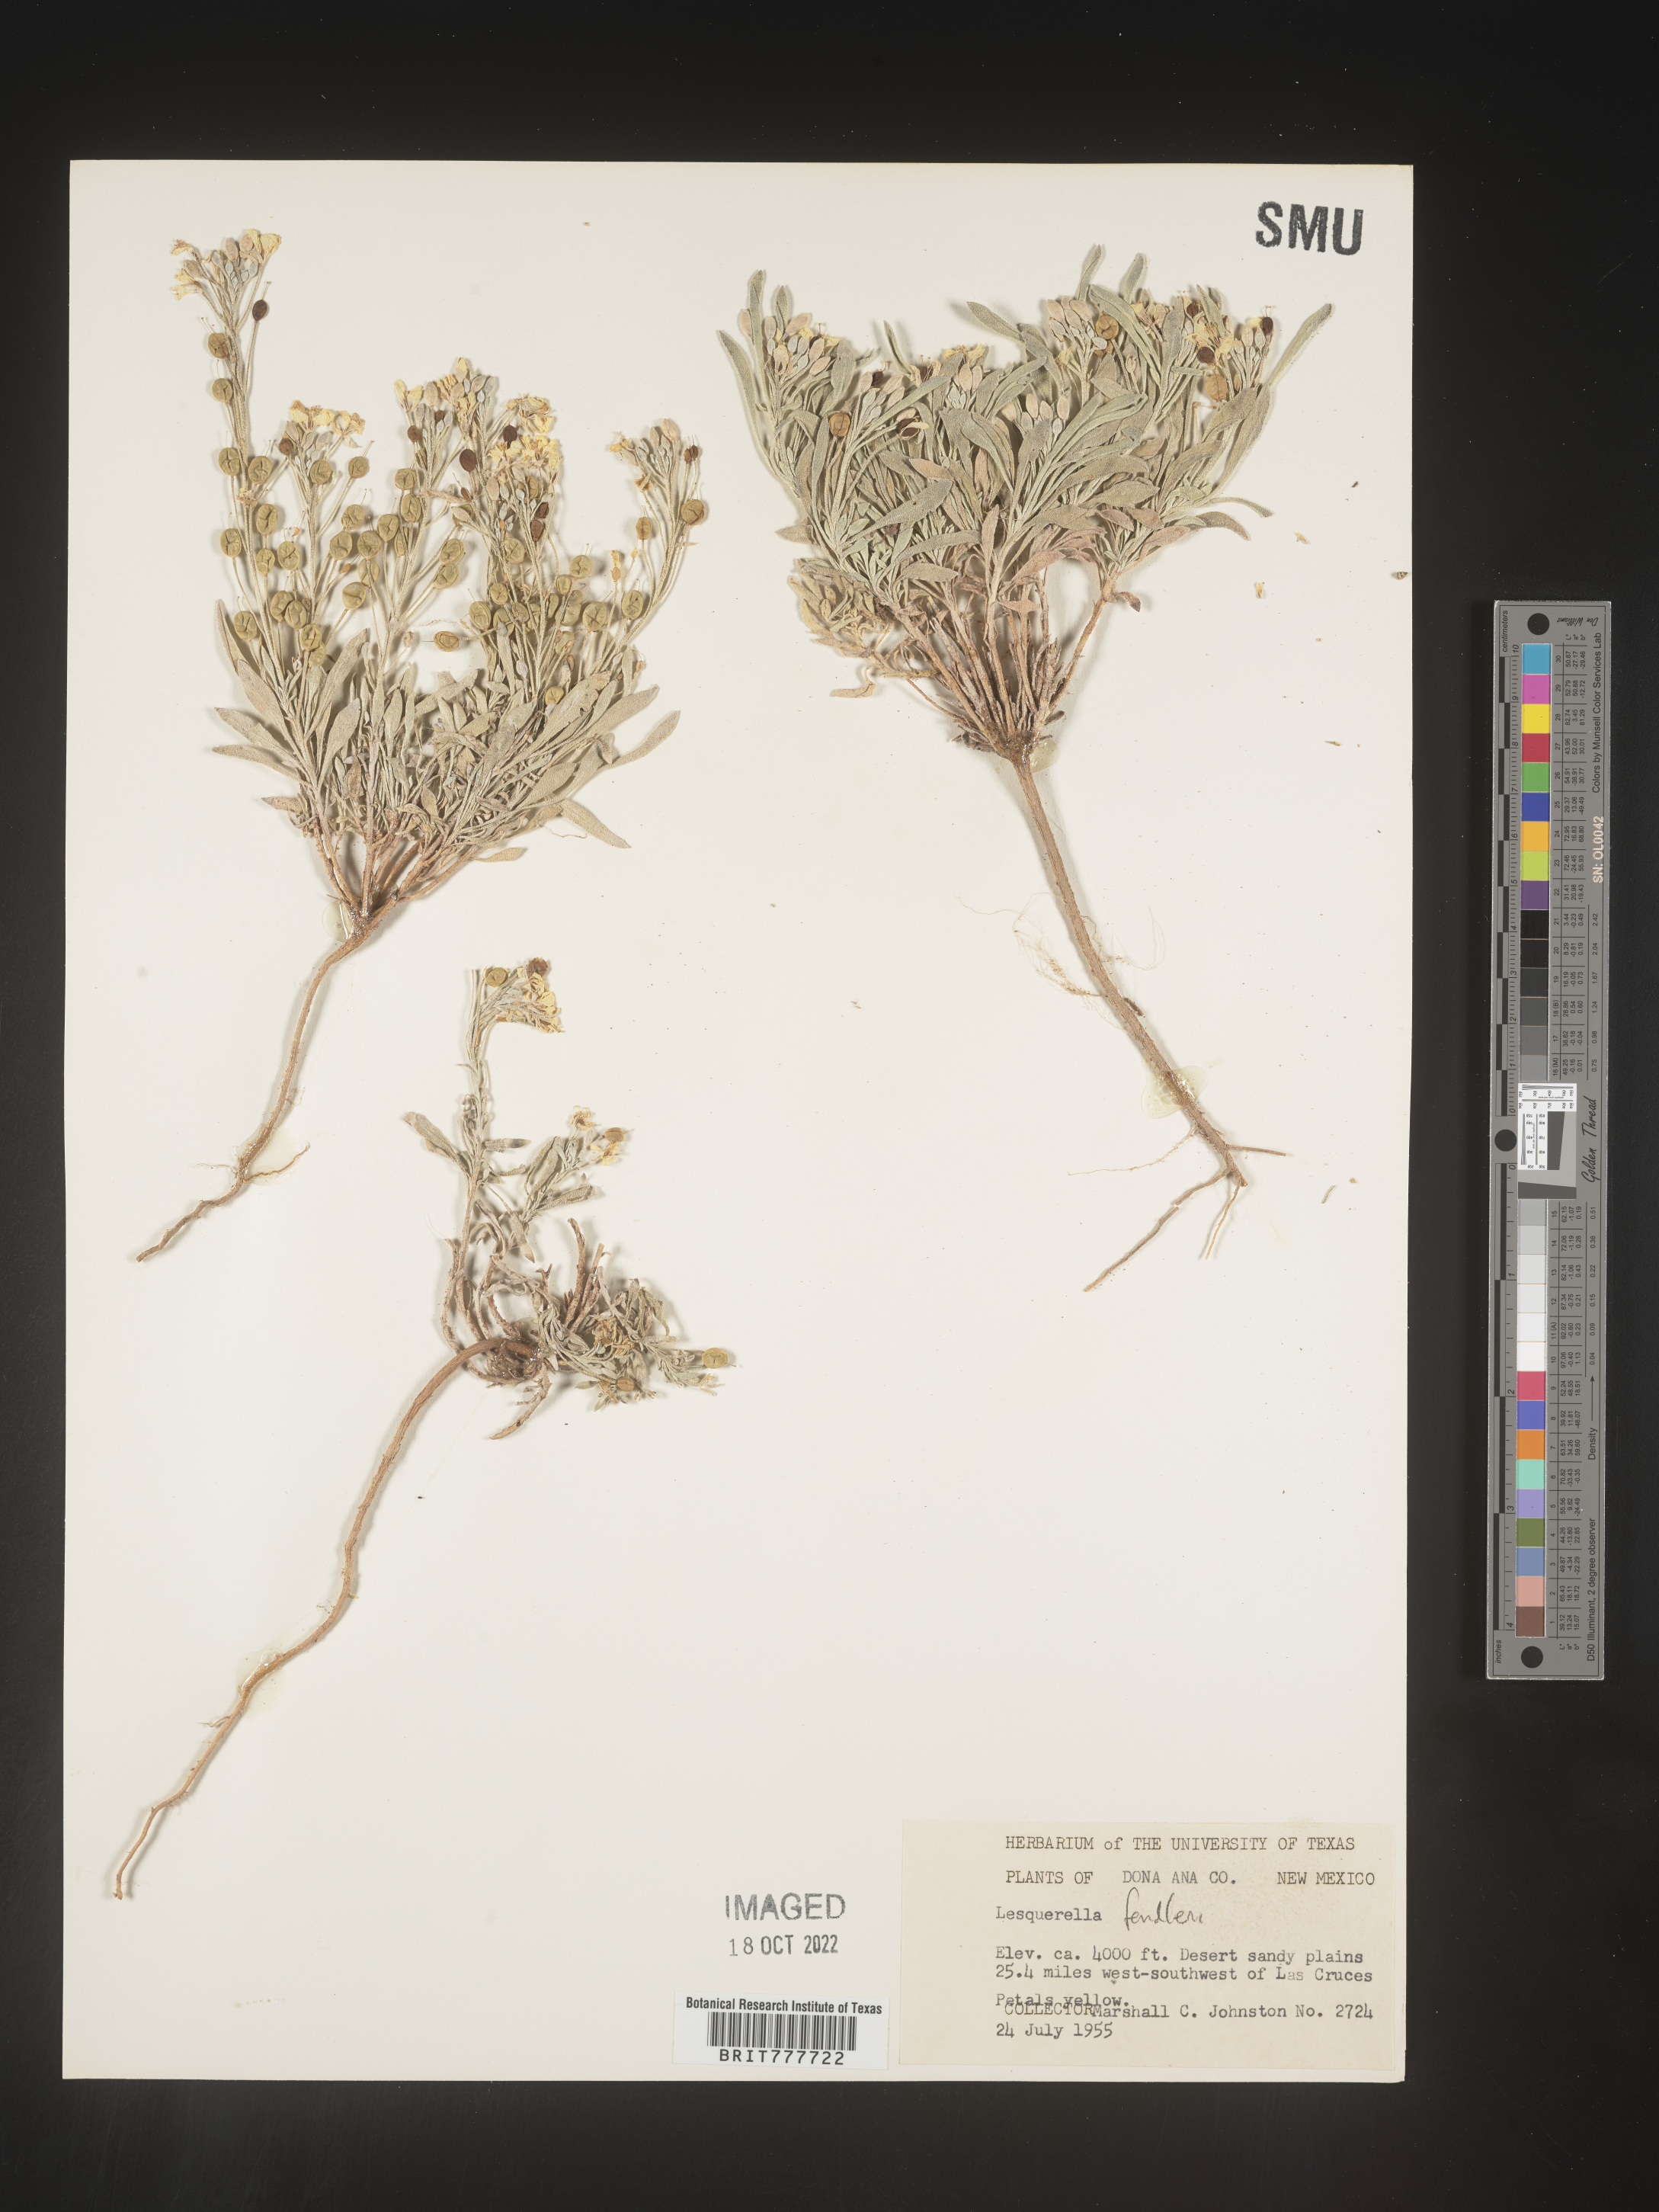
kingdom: Plantae
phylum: Tracheophyta
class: Magnoliopsida
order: Brassicales
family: Brassicaceae
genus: Physaria
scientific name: Physaria fendleri
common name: Fendler's bladderpod
